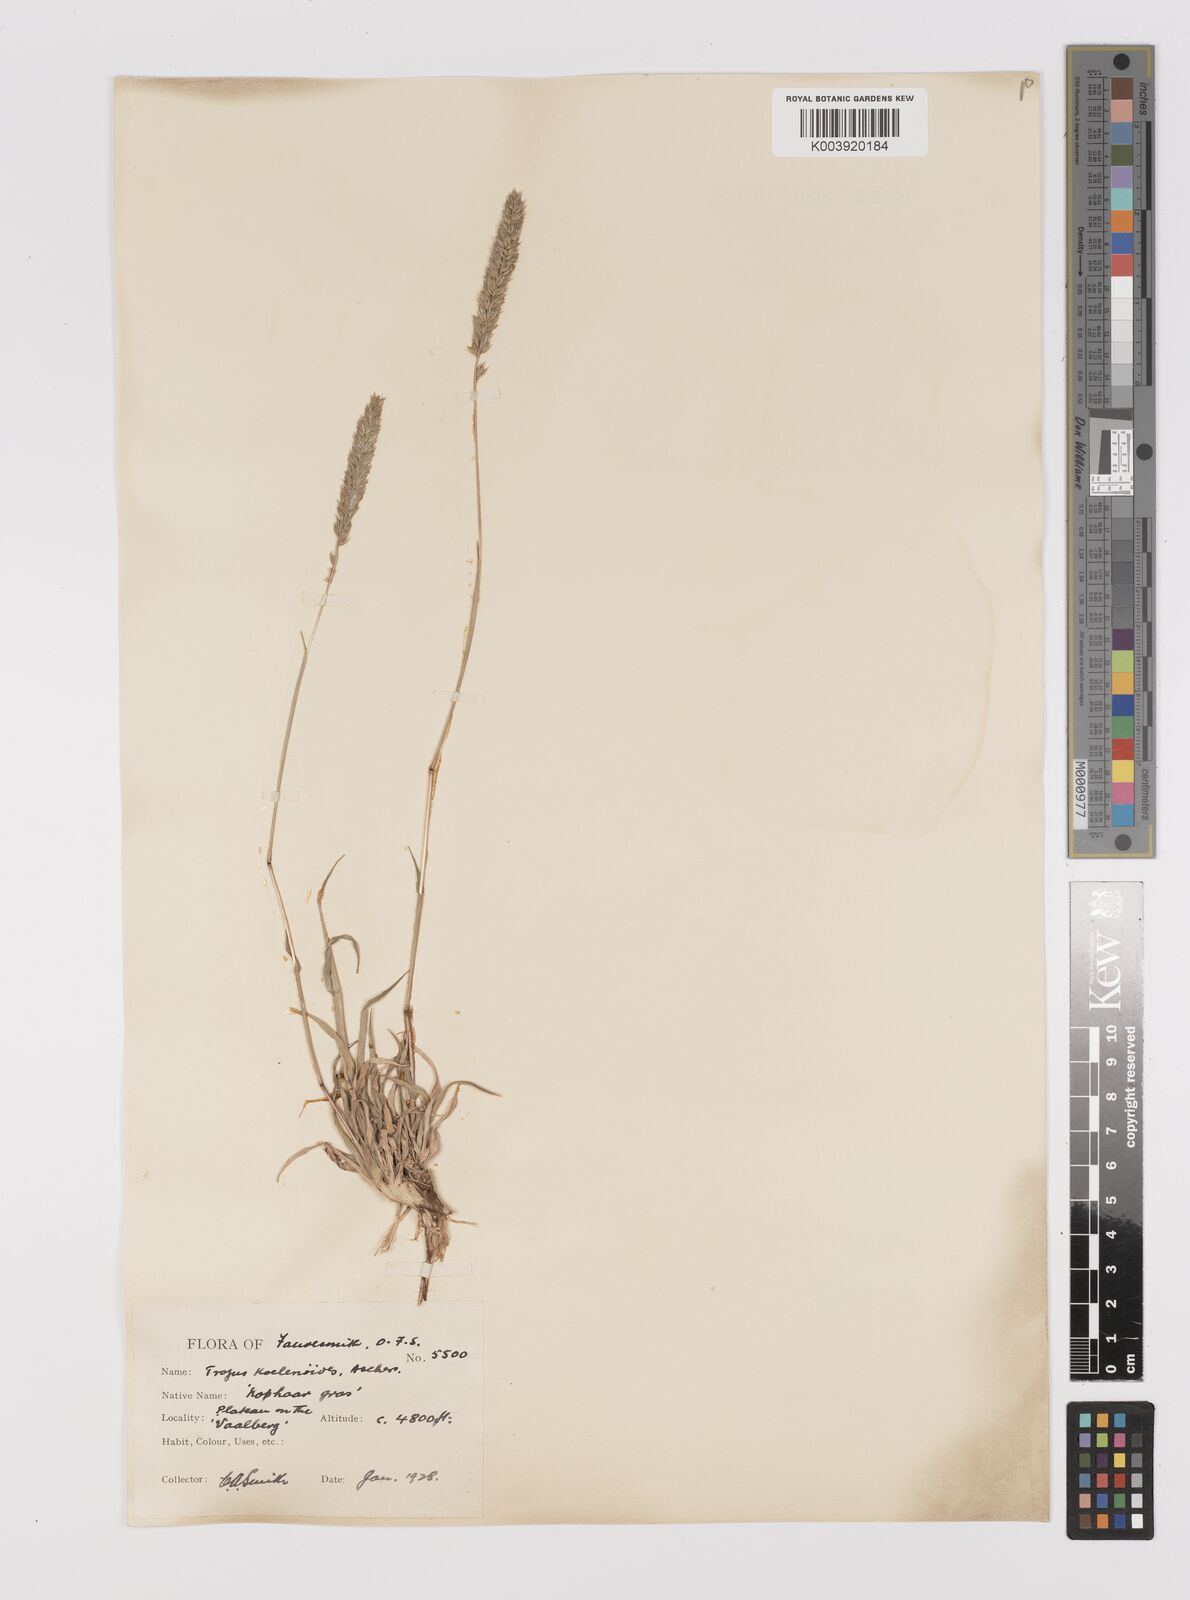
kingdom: Plantae
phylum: Tracheophyta
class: Liliopsida
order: Poales
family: Poaceae
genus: Tragus
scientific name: Tragus koelerioides
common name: Creeping carrot-seed grass
